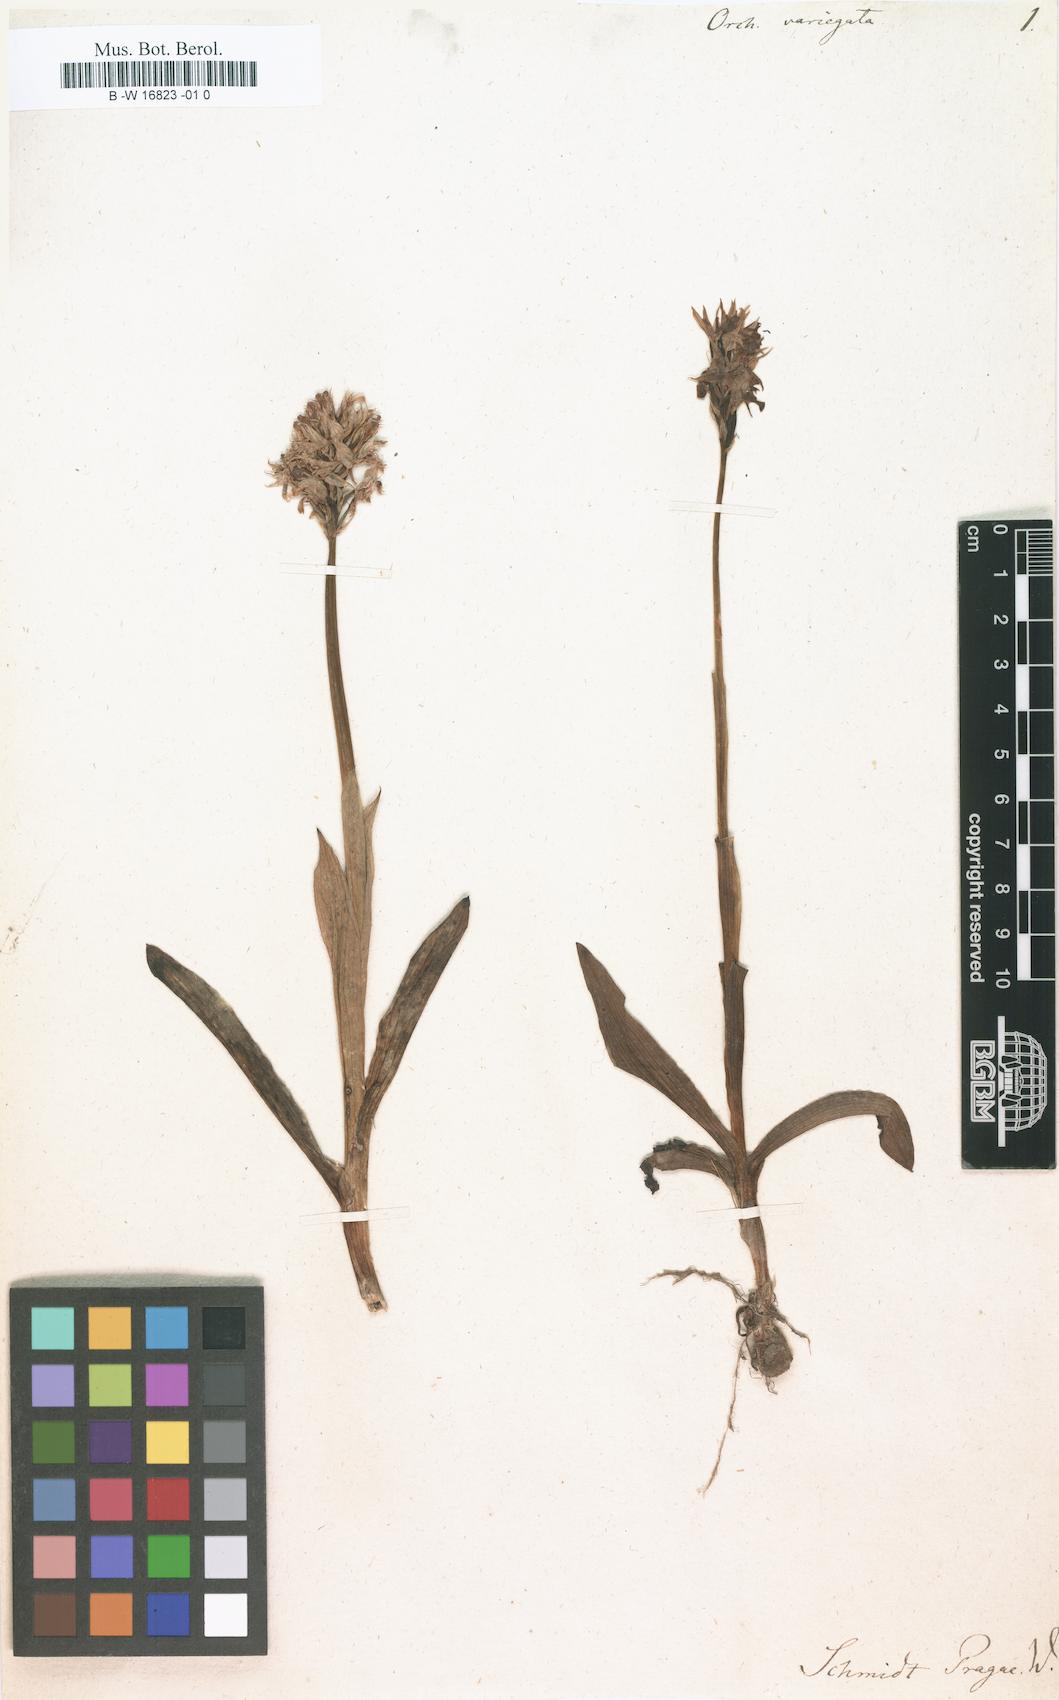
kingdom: Plantae
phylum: Tracheophyta
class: Liliopsida
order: Asparagales
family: Orchidaceae
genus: Neotinea
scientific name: Neotinea tridentata
